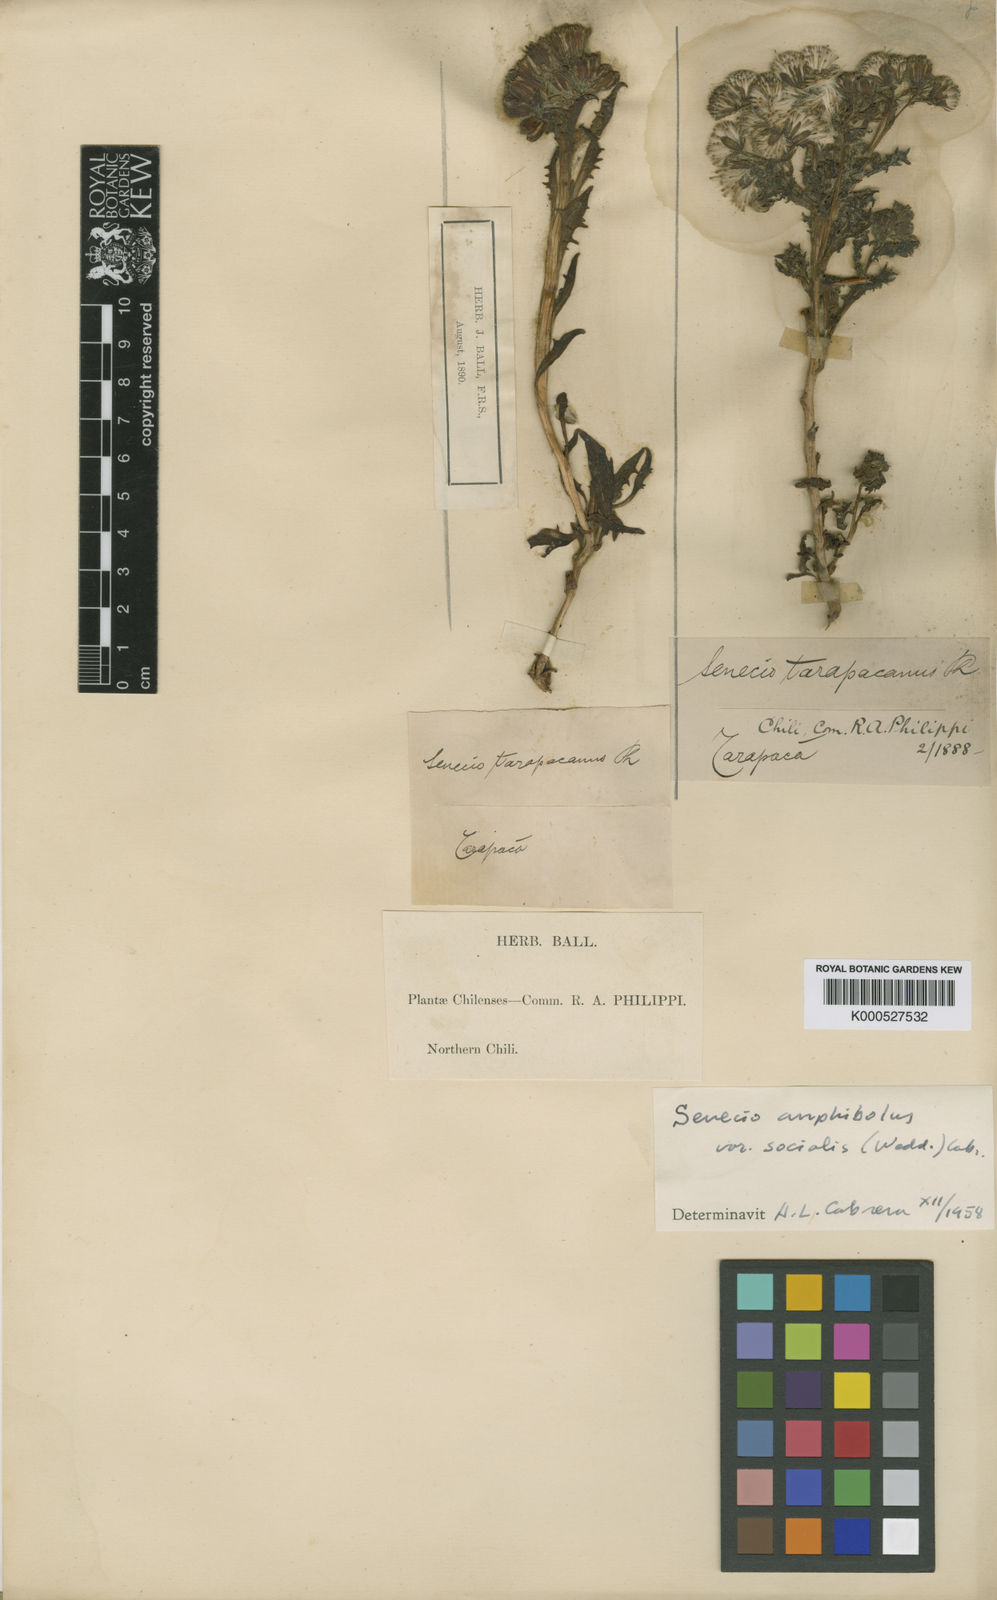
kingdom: Plantae
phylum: Tracheophyta
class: Magnoliopsida
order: Asterales
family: Asteraceae
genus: Senecio
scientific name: Senecio dryophyllus
